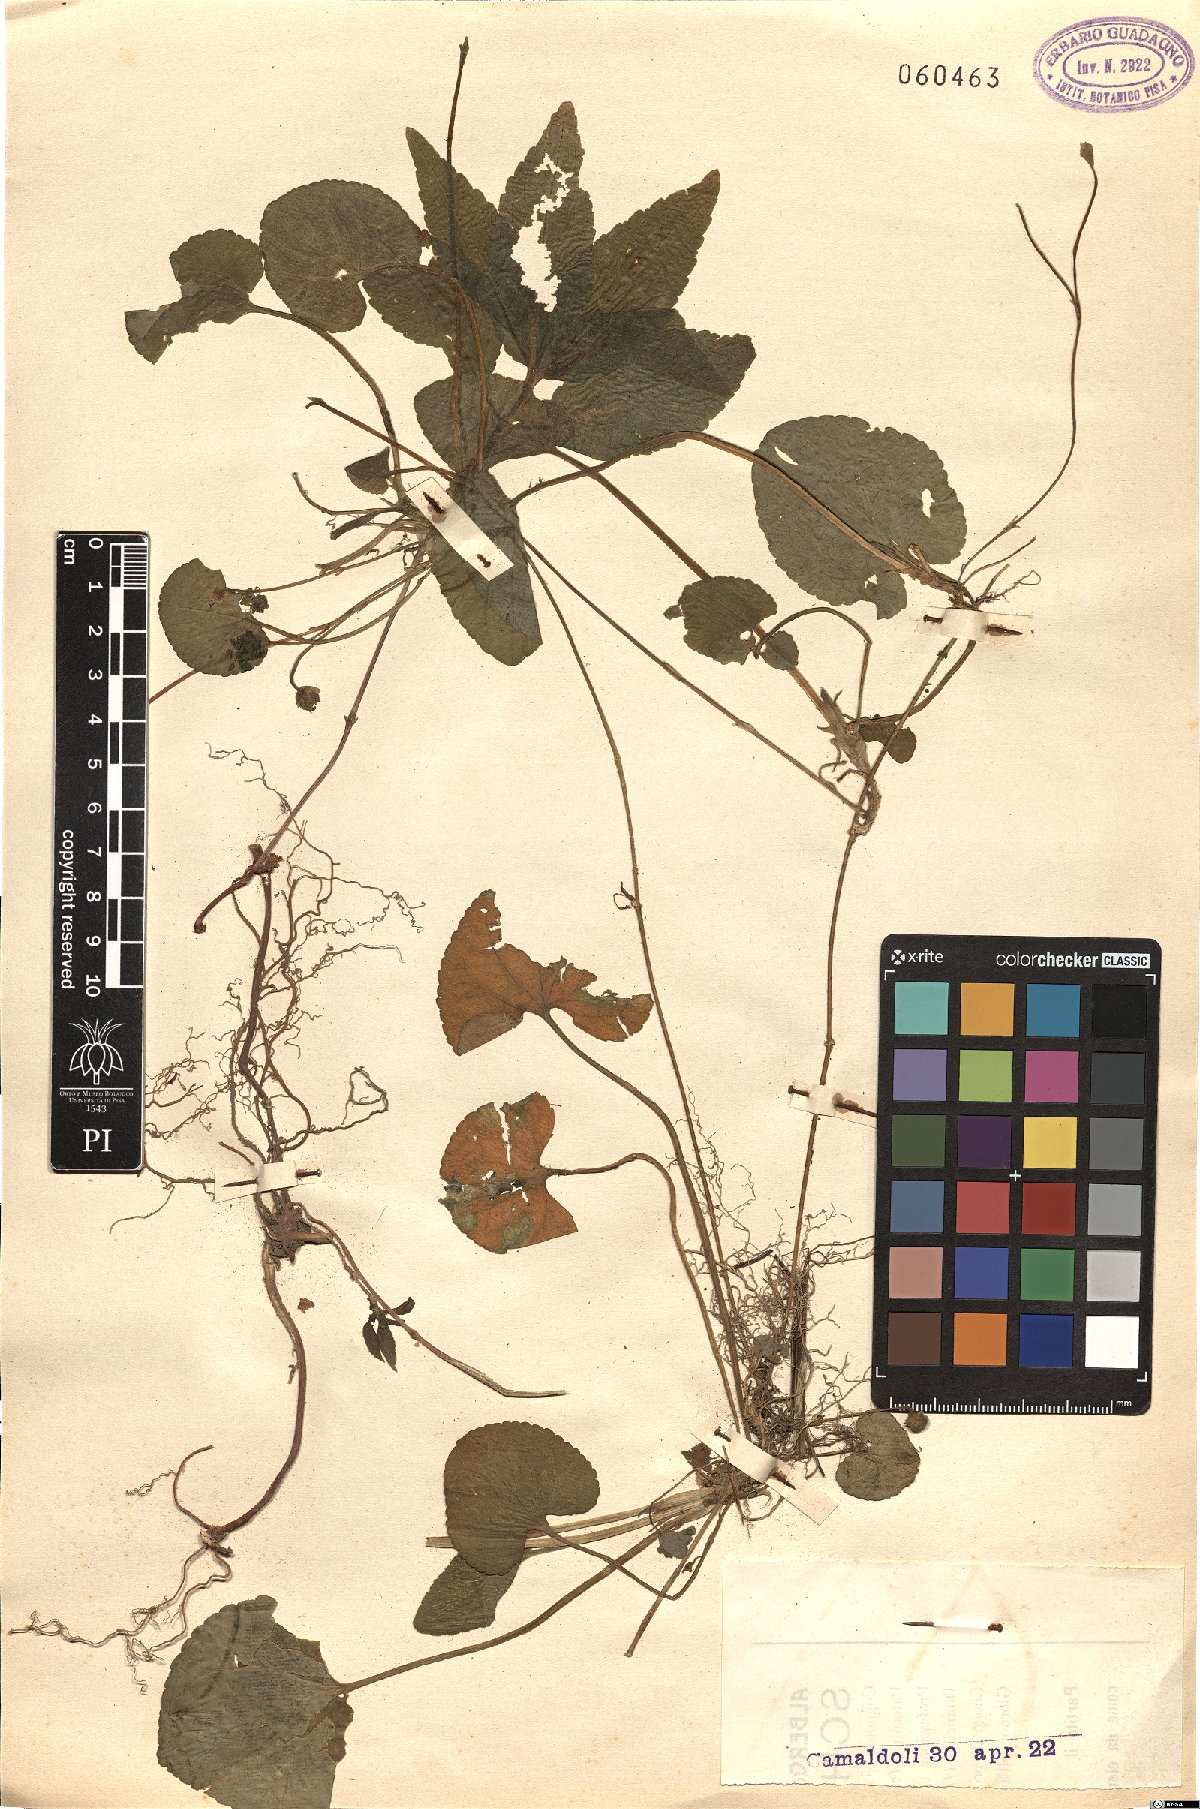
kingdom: Plantae
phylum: Tracheophyta
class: Magnoliopsida
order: Malpighiales
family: Violaceae
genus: Viola
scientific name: Viola
